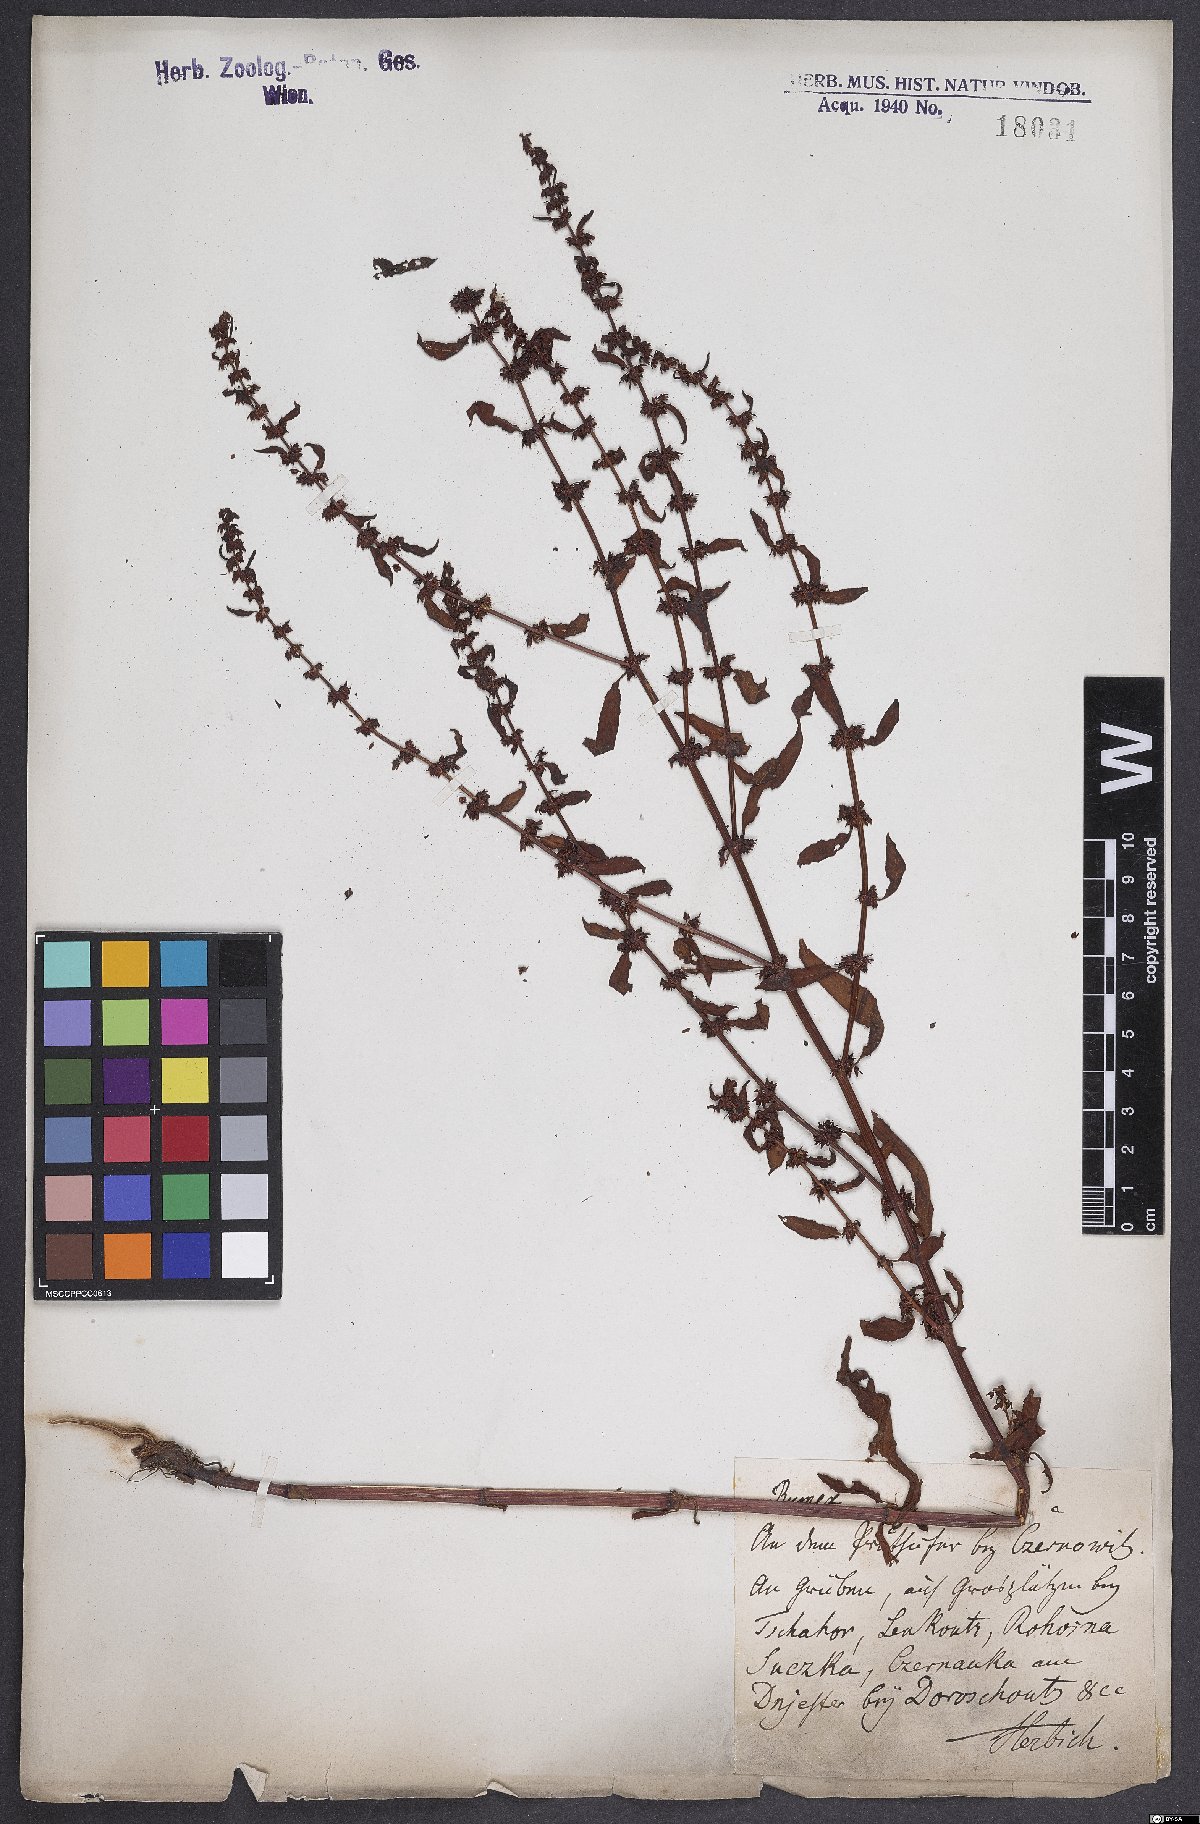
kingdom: Plantae
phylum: Tracheophyta
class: Magnoliopsida
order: Caryophyllales
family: Polygonaceae
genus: Rumex
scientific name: Rumex conglomeratus
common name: Clustered dock
